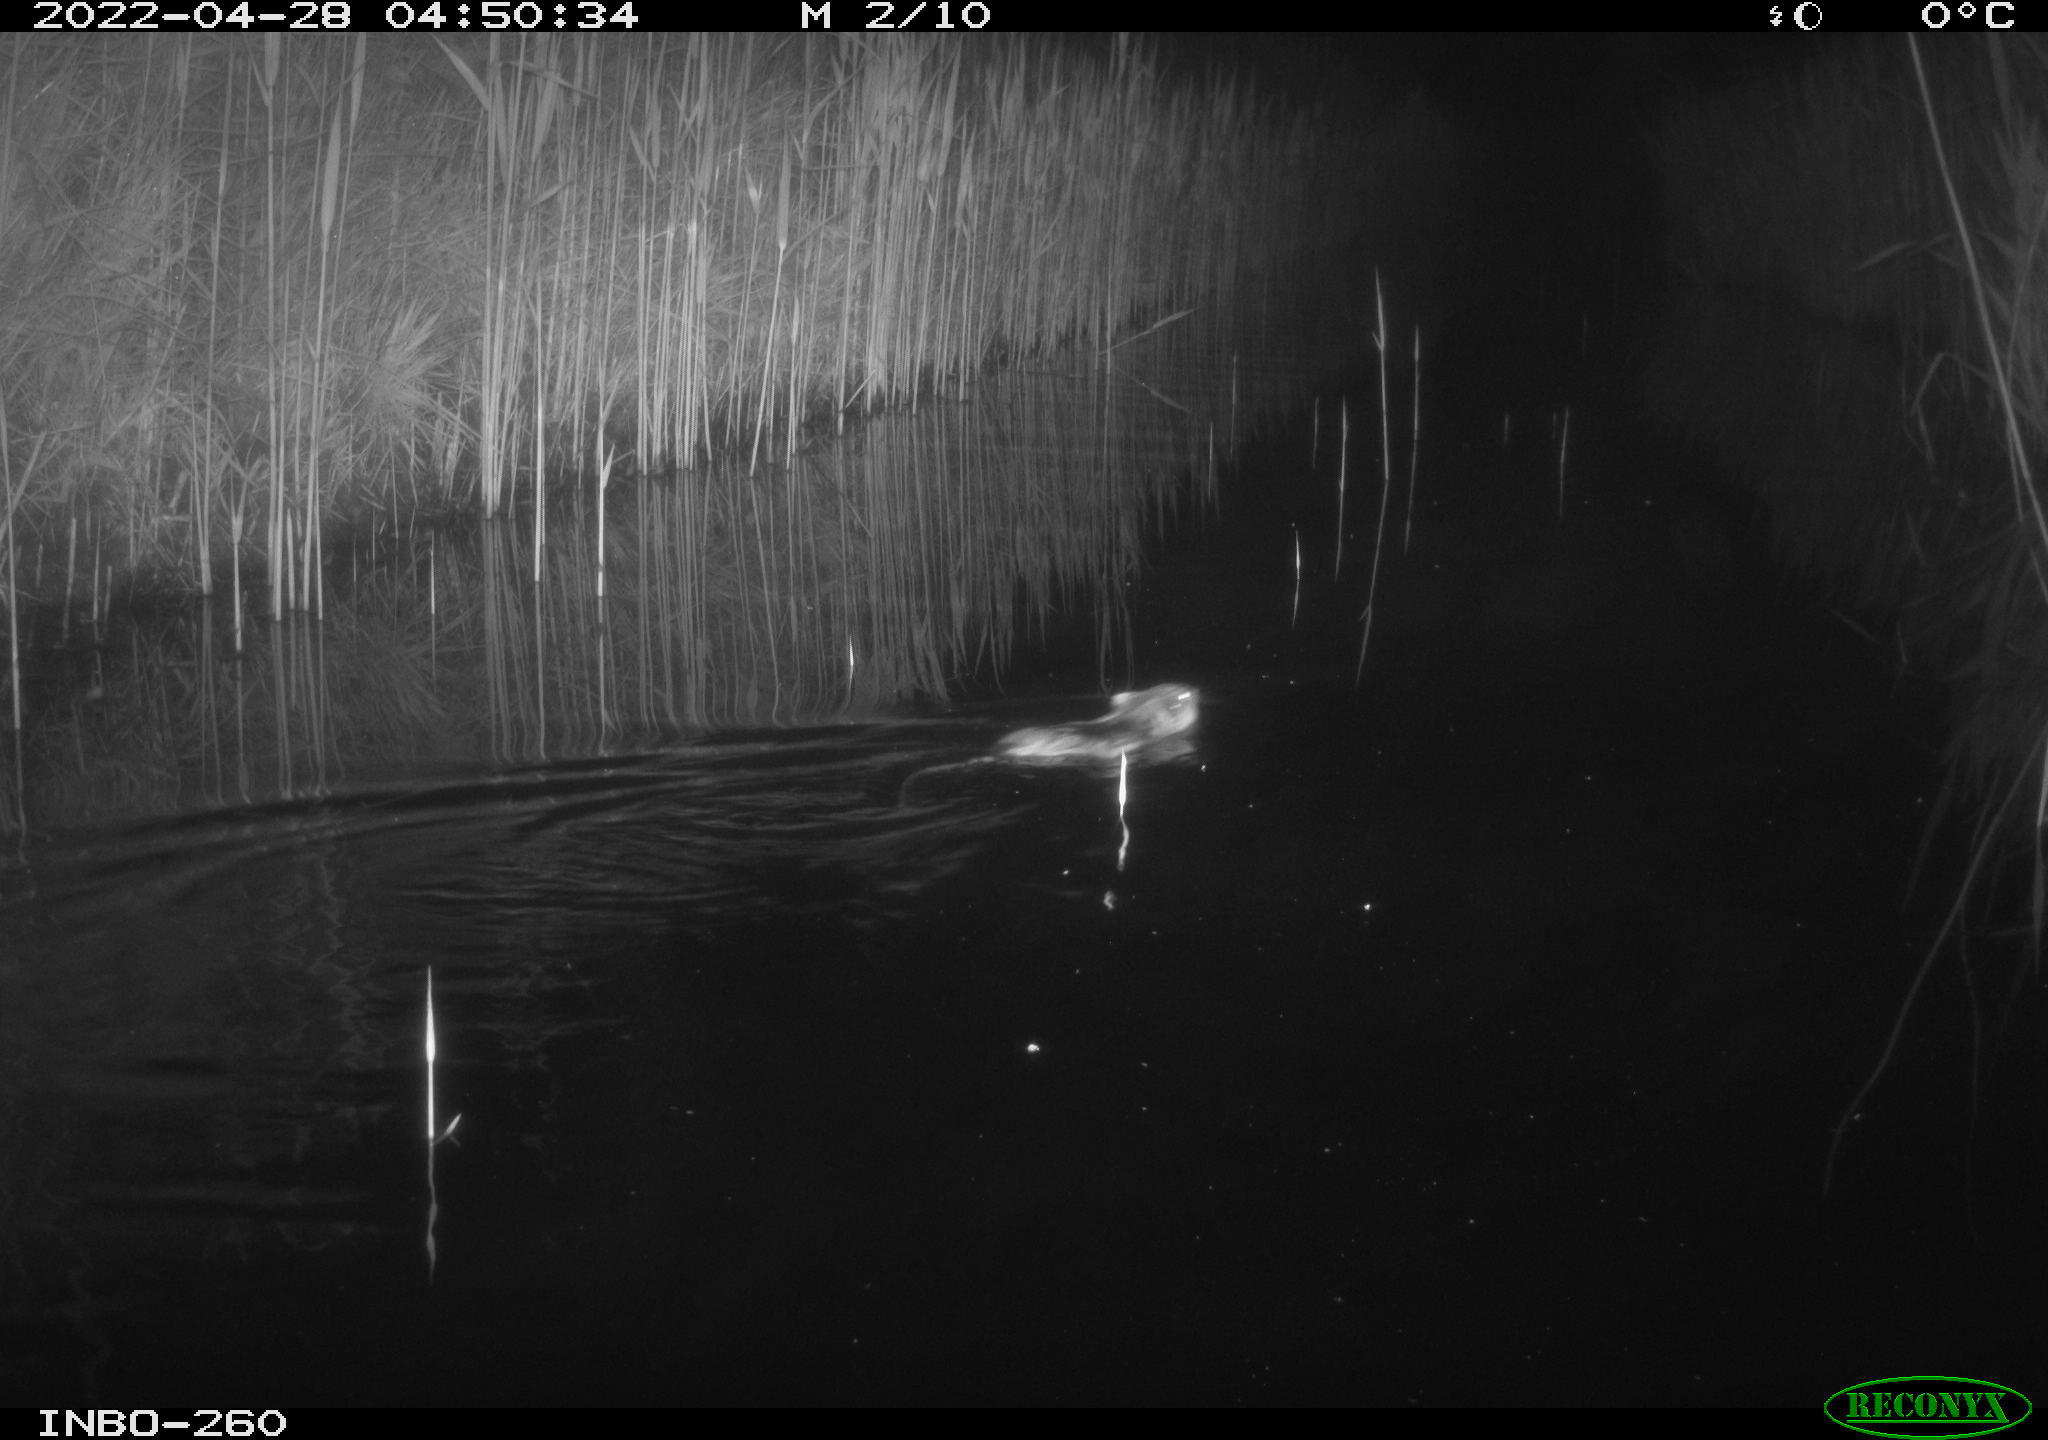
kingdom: Animalia
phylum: Chordata
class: Mammalia
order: Rodentia
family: Muridae
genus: Rattus
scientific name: Rattus norvegicus
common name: Brown rat
